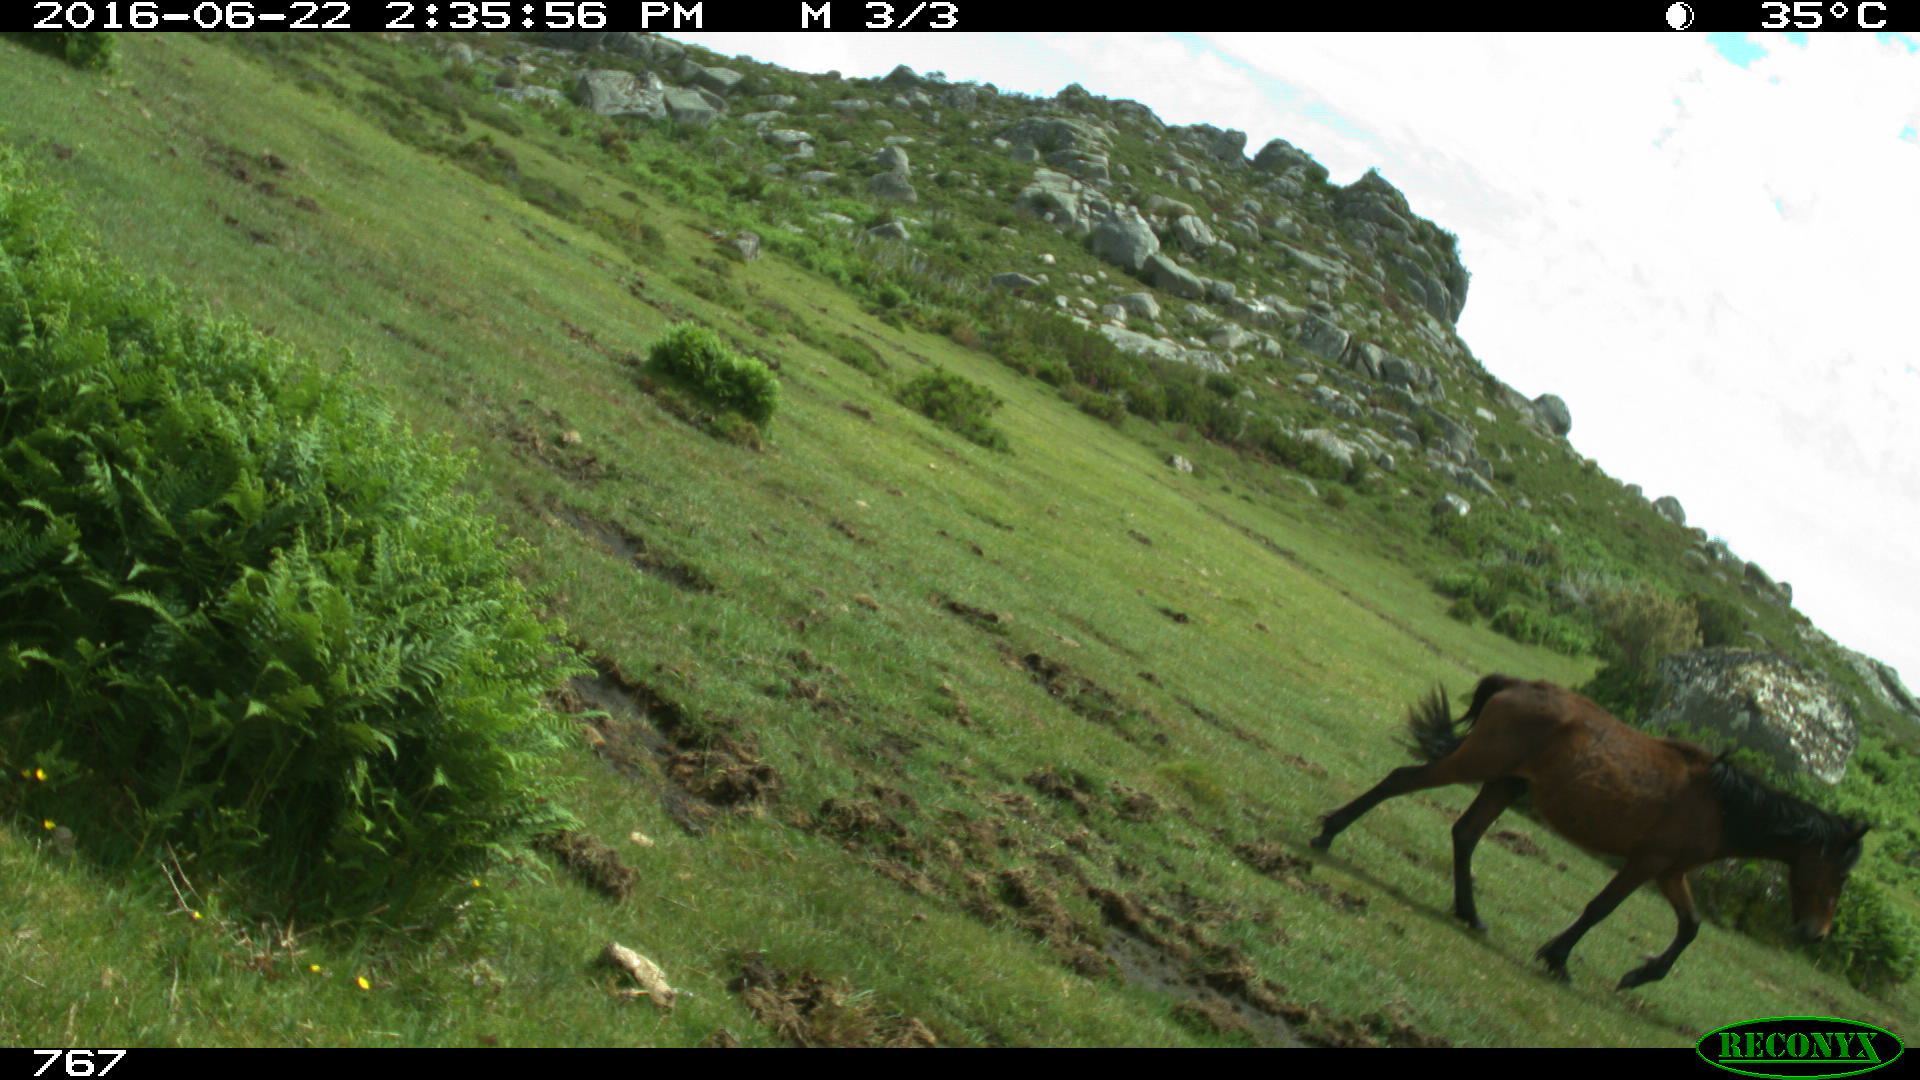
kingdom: Animalia
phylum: Chordata
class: Mammalia
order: Perissodactyla
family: Equidae
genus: Equus
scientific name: Equus caballus
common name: Horse
